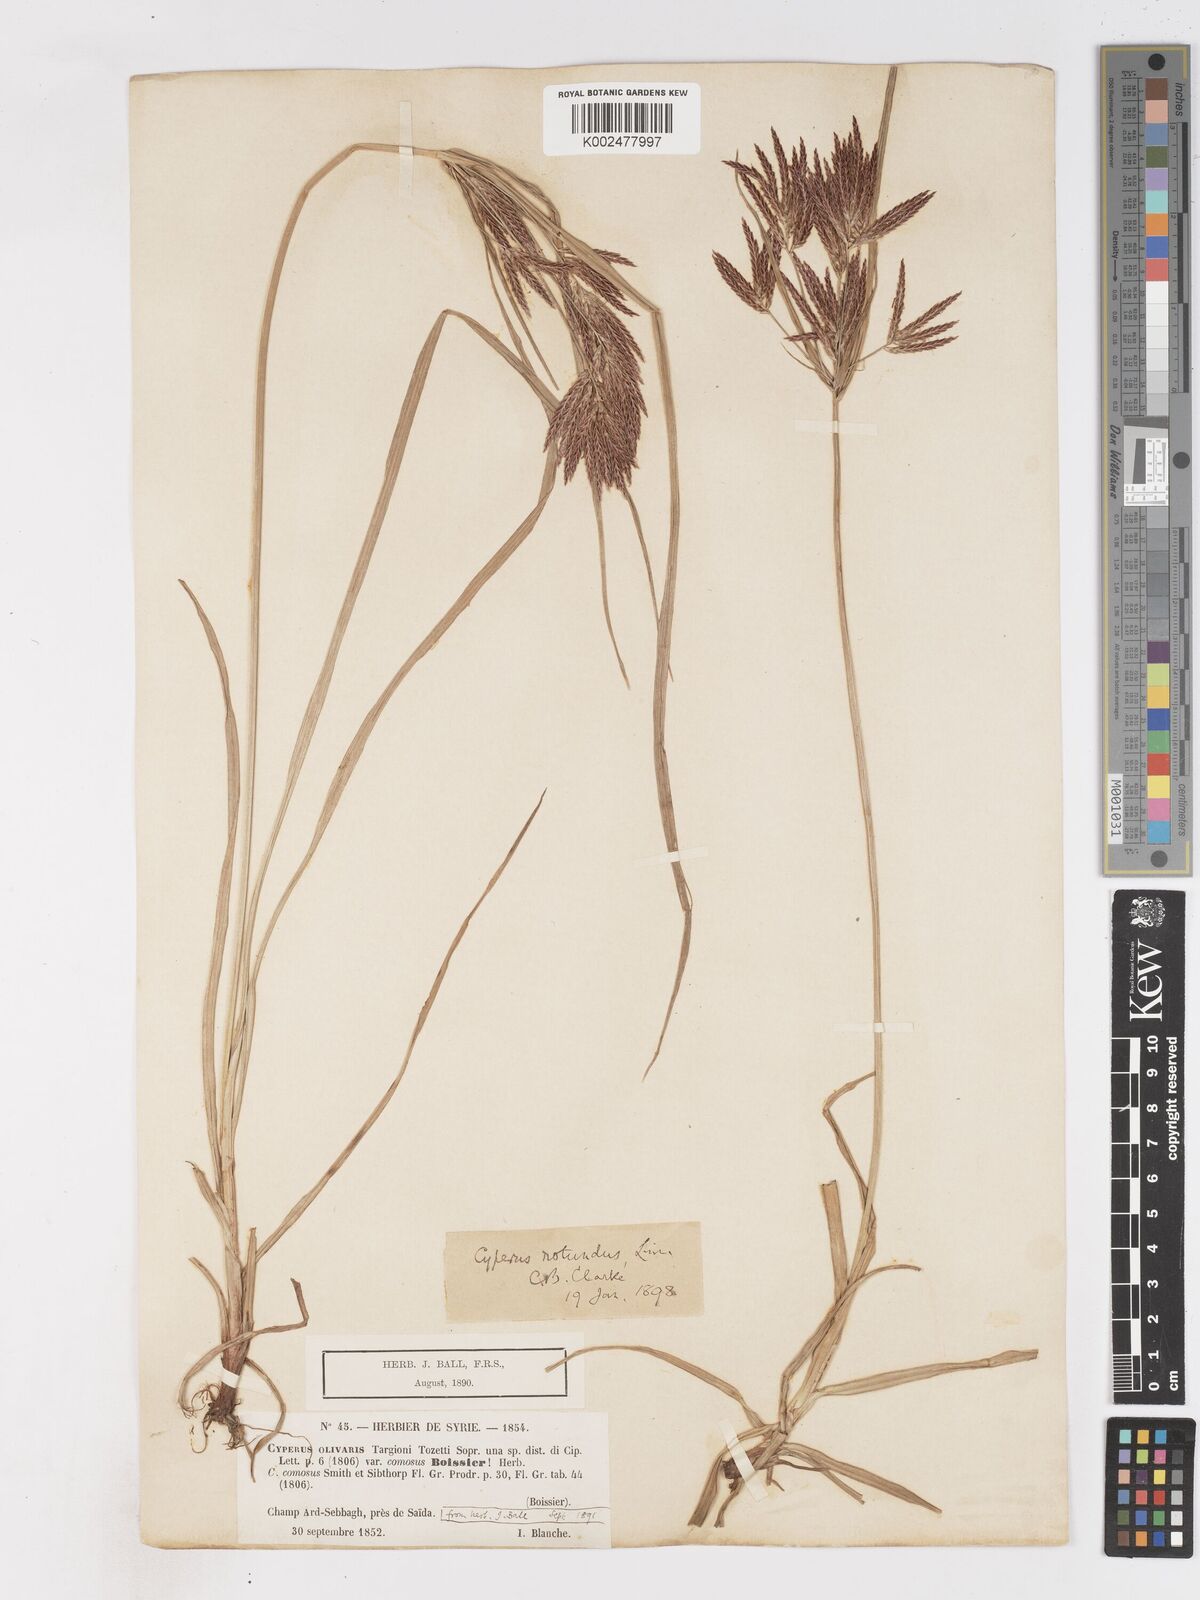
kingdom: Plantae
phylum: Tracheophyta
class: Liliopsida
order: Poales
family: Cyperaceae
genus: Cyperus
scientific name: Cyperus rotundus
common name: Nutgrass
